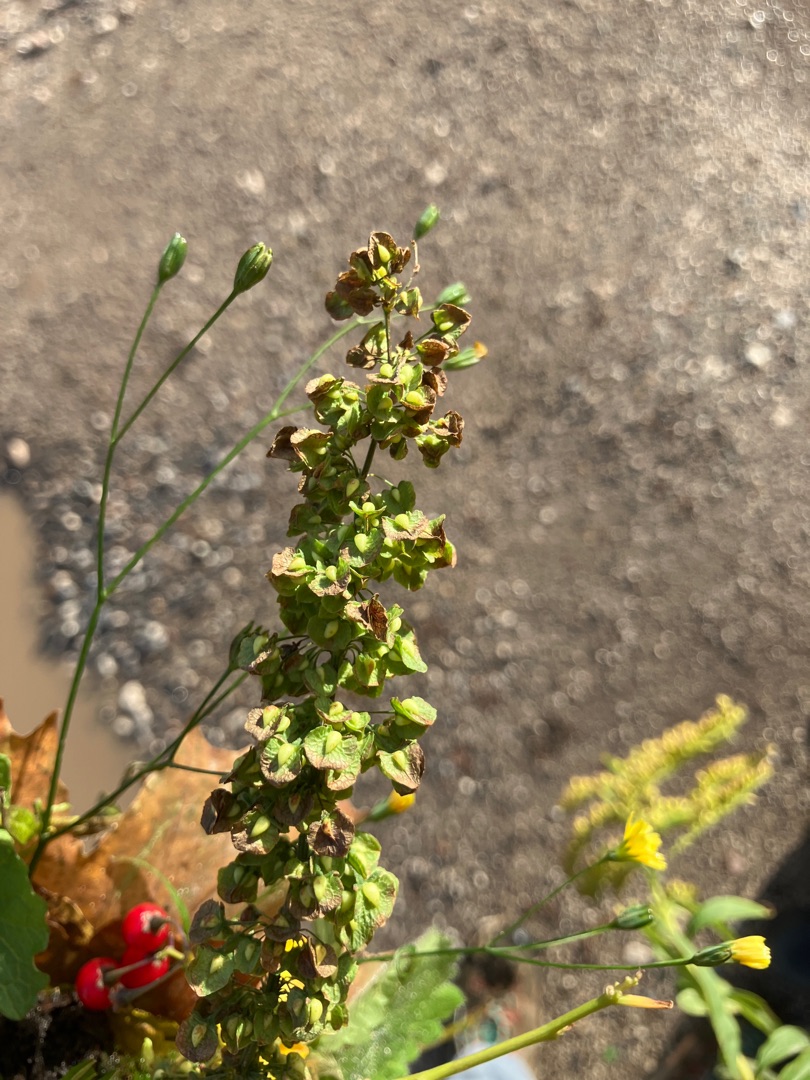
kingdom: Plantae
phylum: Tracheophyta
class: Magnoliopsida
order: Caryophyllales
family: Polygonaceae
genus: Rumex
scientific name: Rumex crispus
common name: Kruset skræppe
